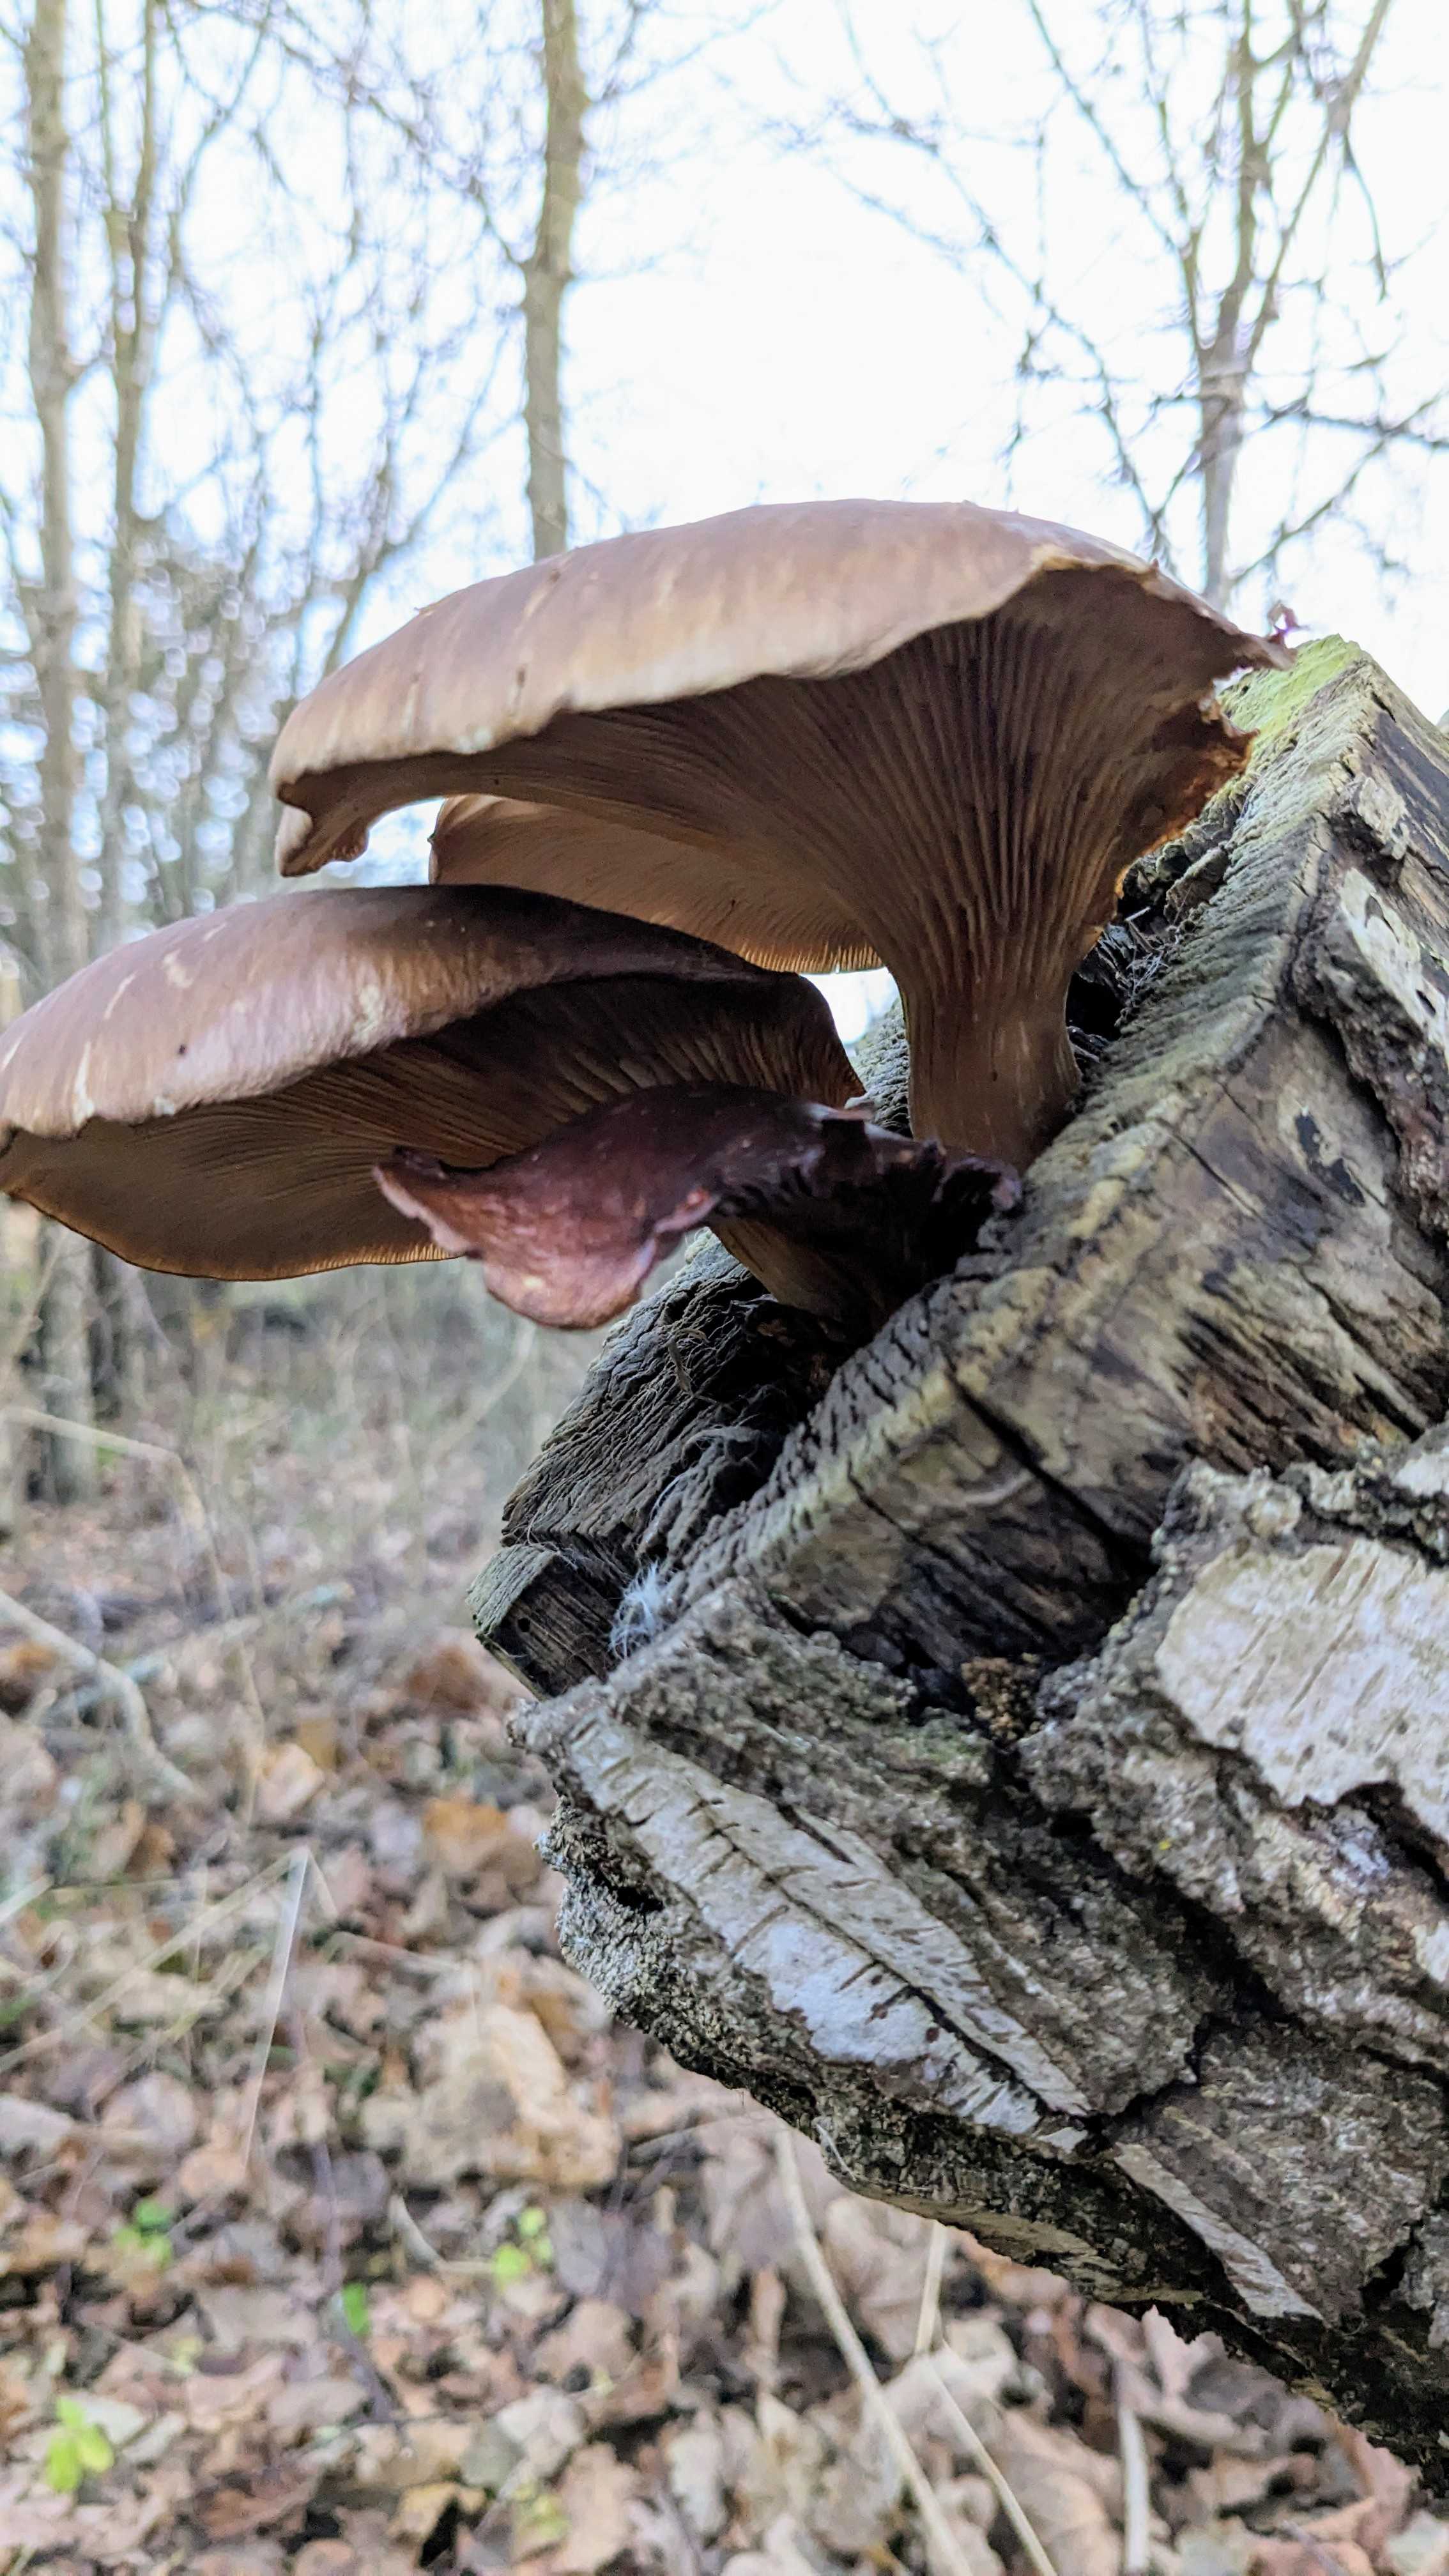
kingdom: Fungi
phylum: Basidiomycota
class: Agaricomycetes
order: Agaricales
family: Pleurotaceae
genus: Pleurotus
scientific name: Pleurotus ostreatus
